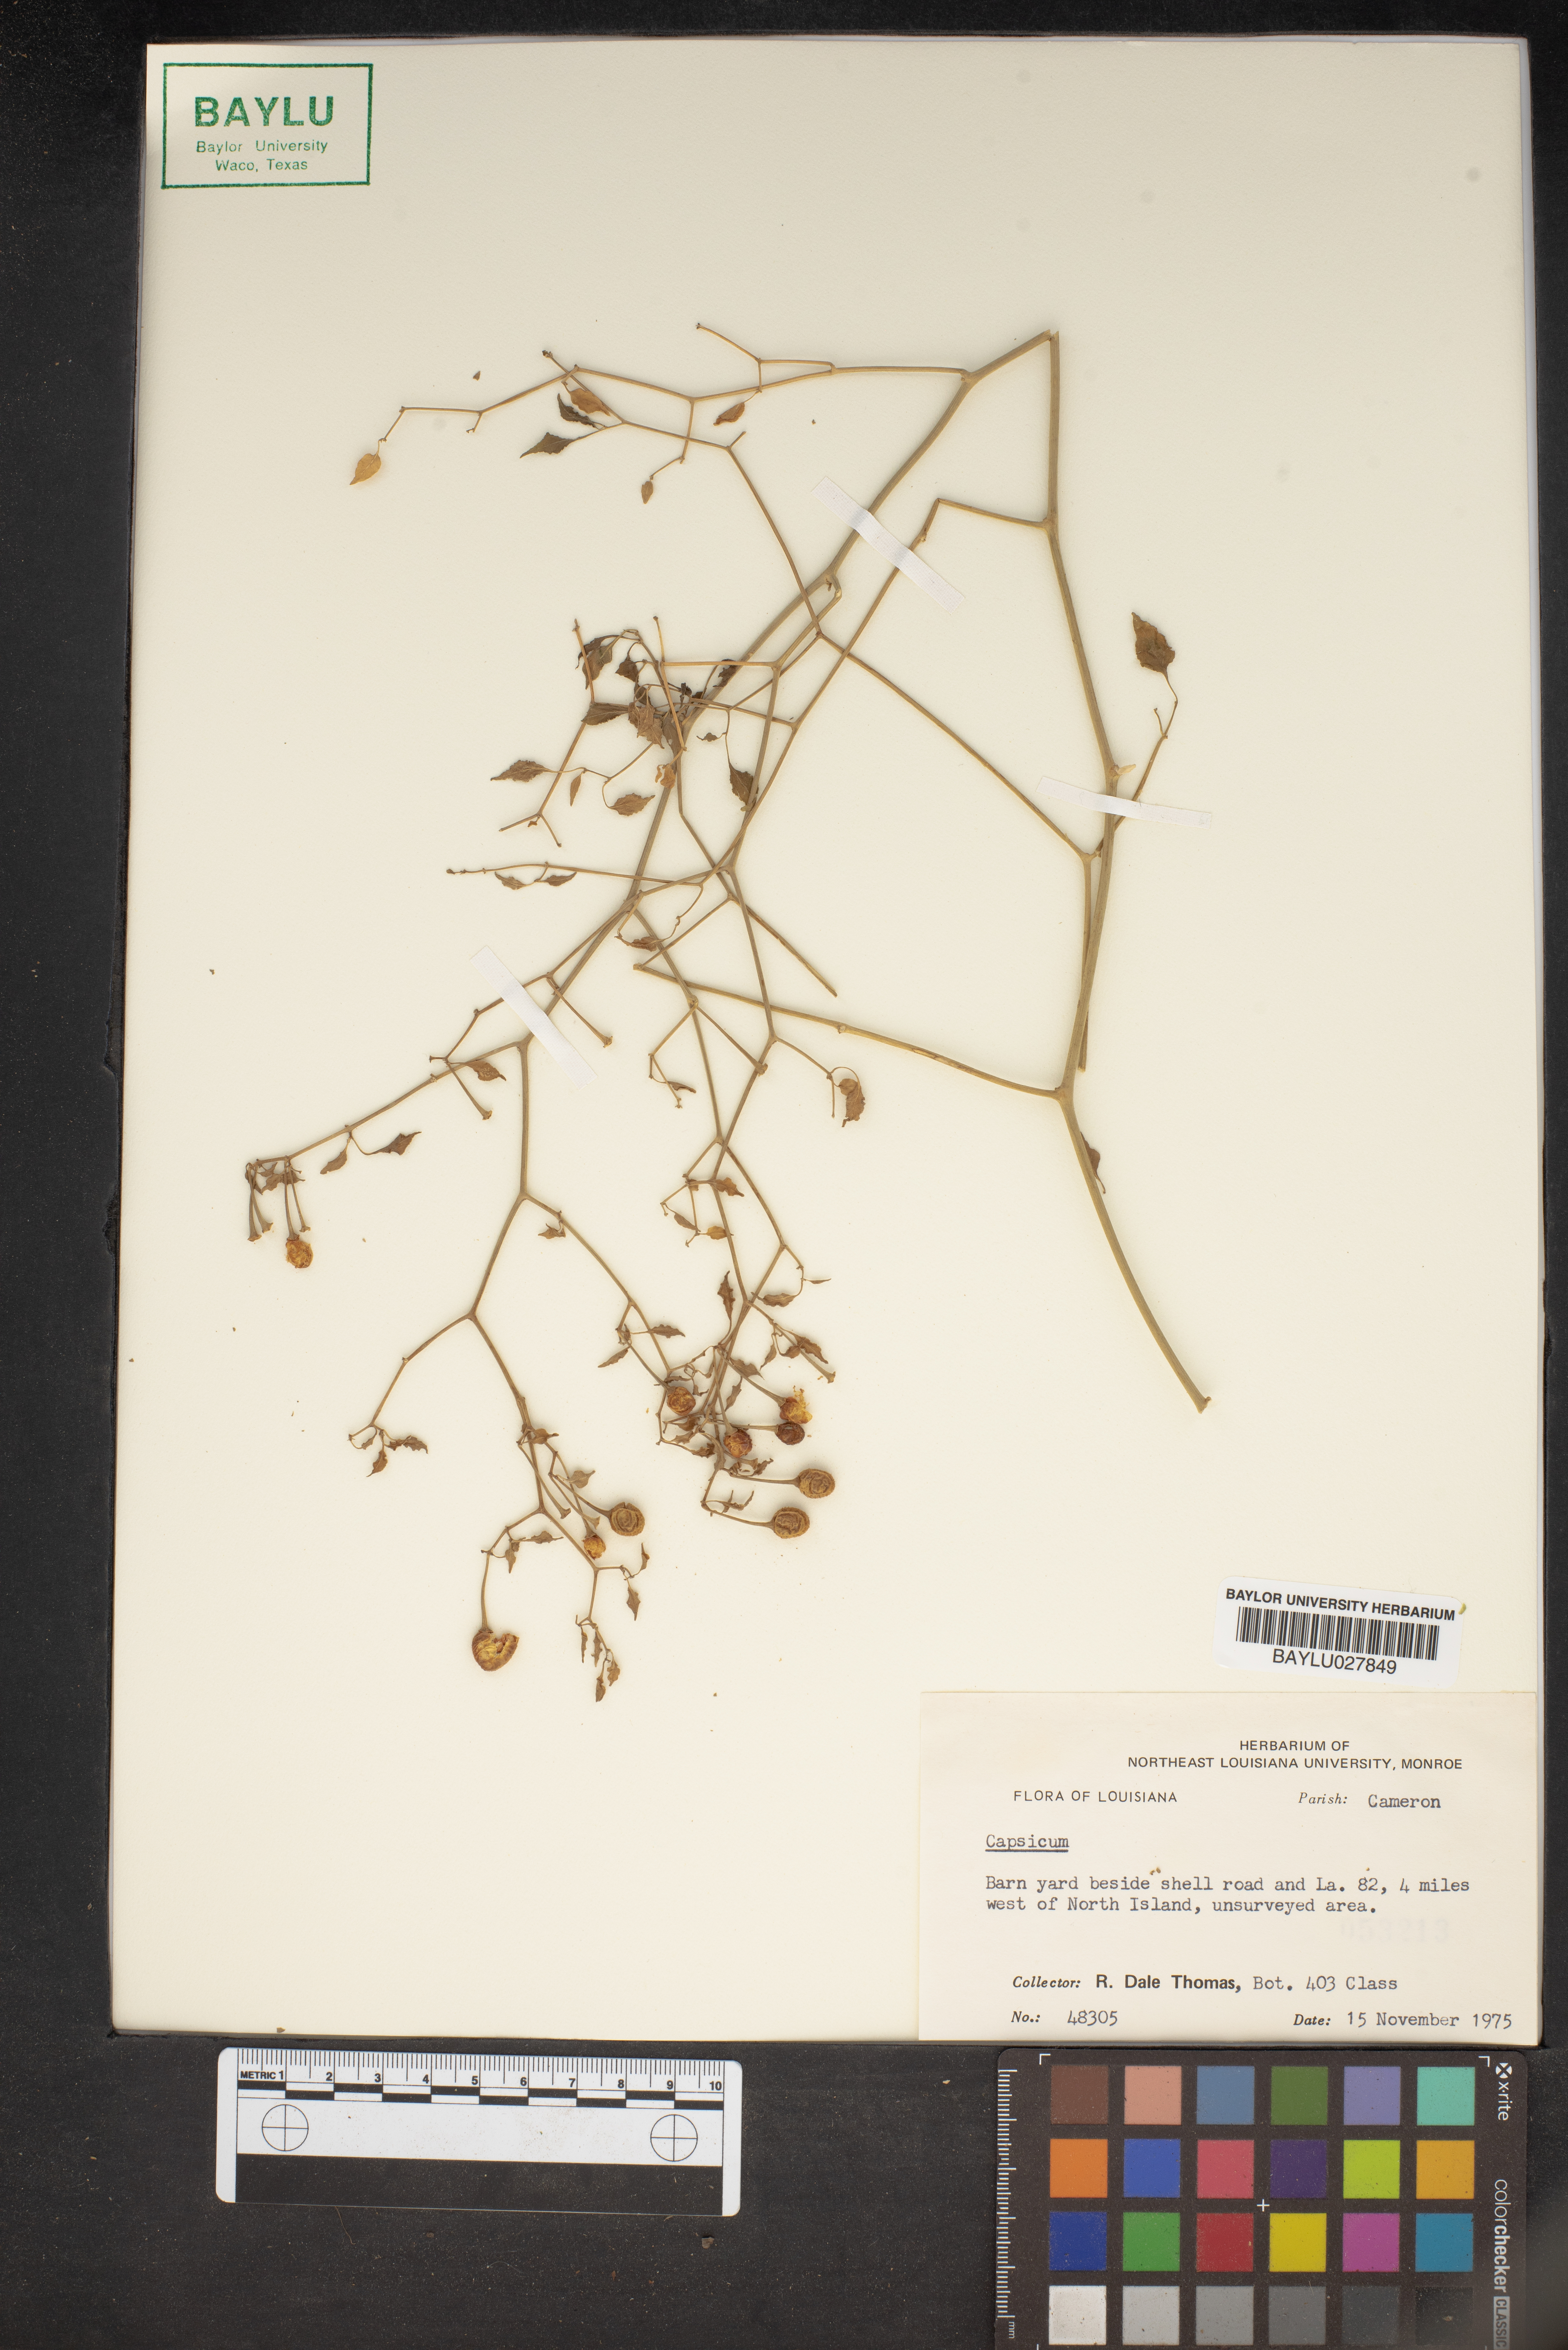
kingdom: Plantae
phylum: Tracheophyta
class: Magnoliopsida
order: Solanales
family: Solanaceae
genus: Capsicum
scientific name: Capsicum
